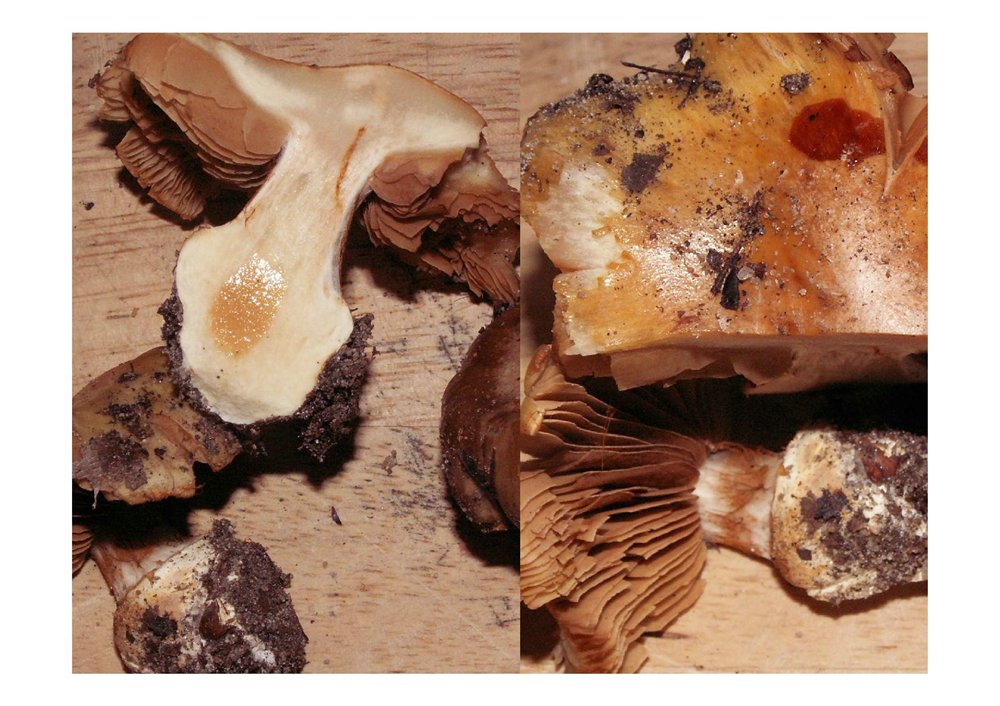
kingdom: Fungi
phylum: Basidiomycota
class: Agaricomycetes
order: Agaricales
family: Cortinariaceae
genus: Phlegmacium
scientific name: Phlegmacium xantho-ochraceum
